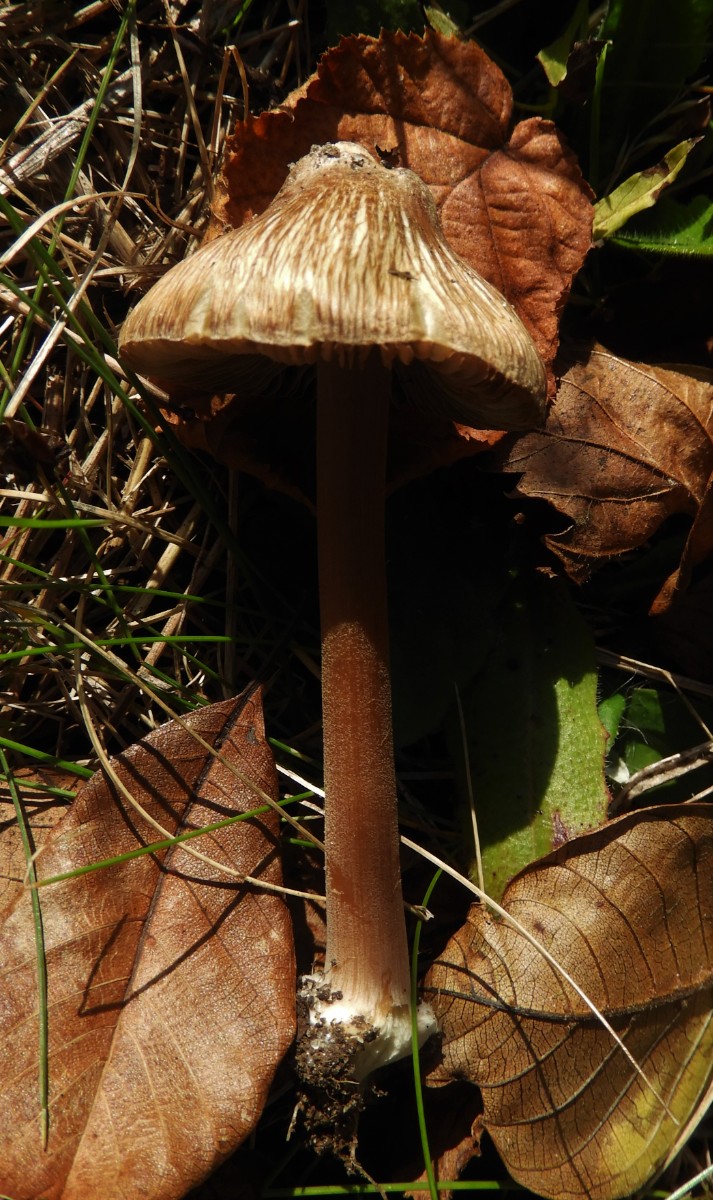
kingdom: Fungi
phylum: Basidiomycota
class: Agaricomycetes
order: Agaricales
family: Inocybaceae
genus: Inocybe
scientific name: Inocybe asterospora
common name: stjernesporet trævlhat
